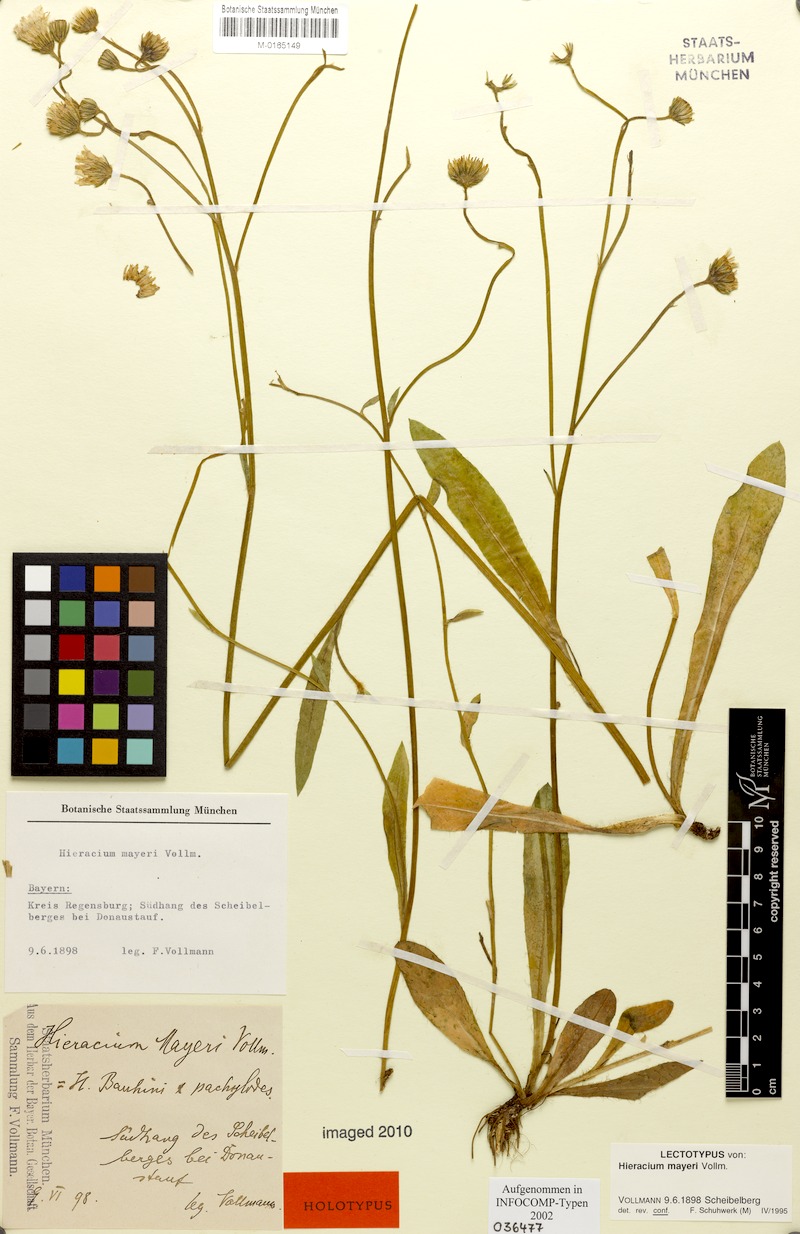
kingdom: Plantae
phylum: Tracheophyta
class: Magnoliopsida
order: Asterales
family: Asteraceae
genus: Pilosella
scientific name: Pilosella mayeri
